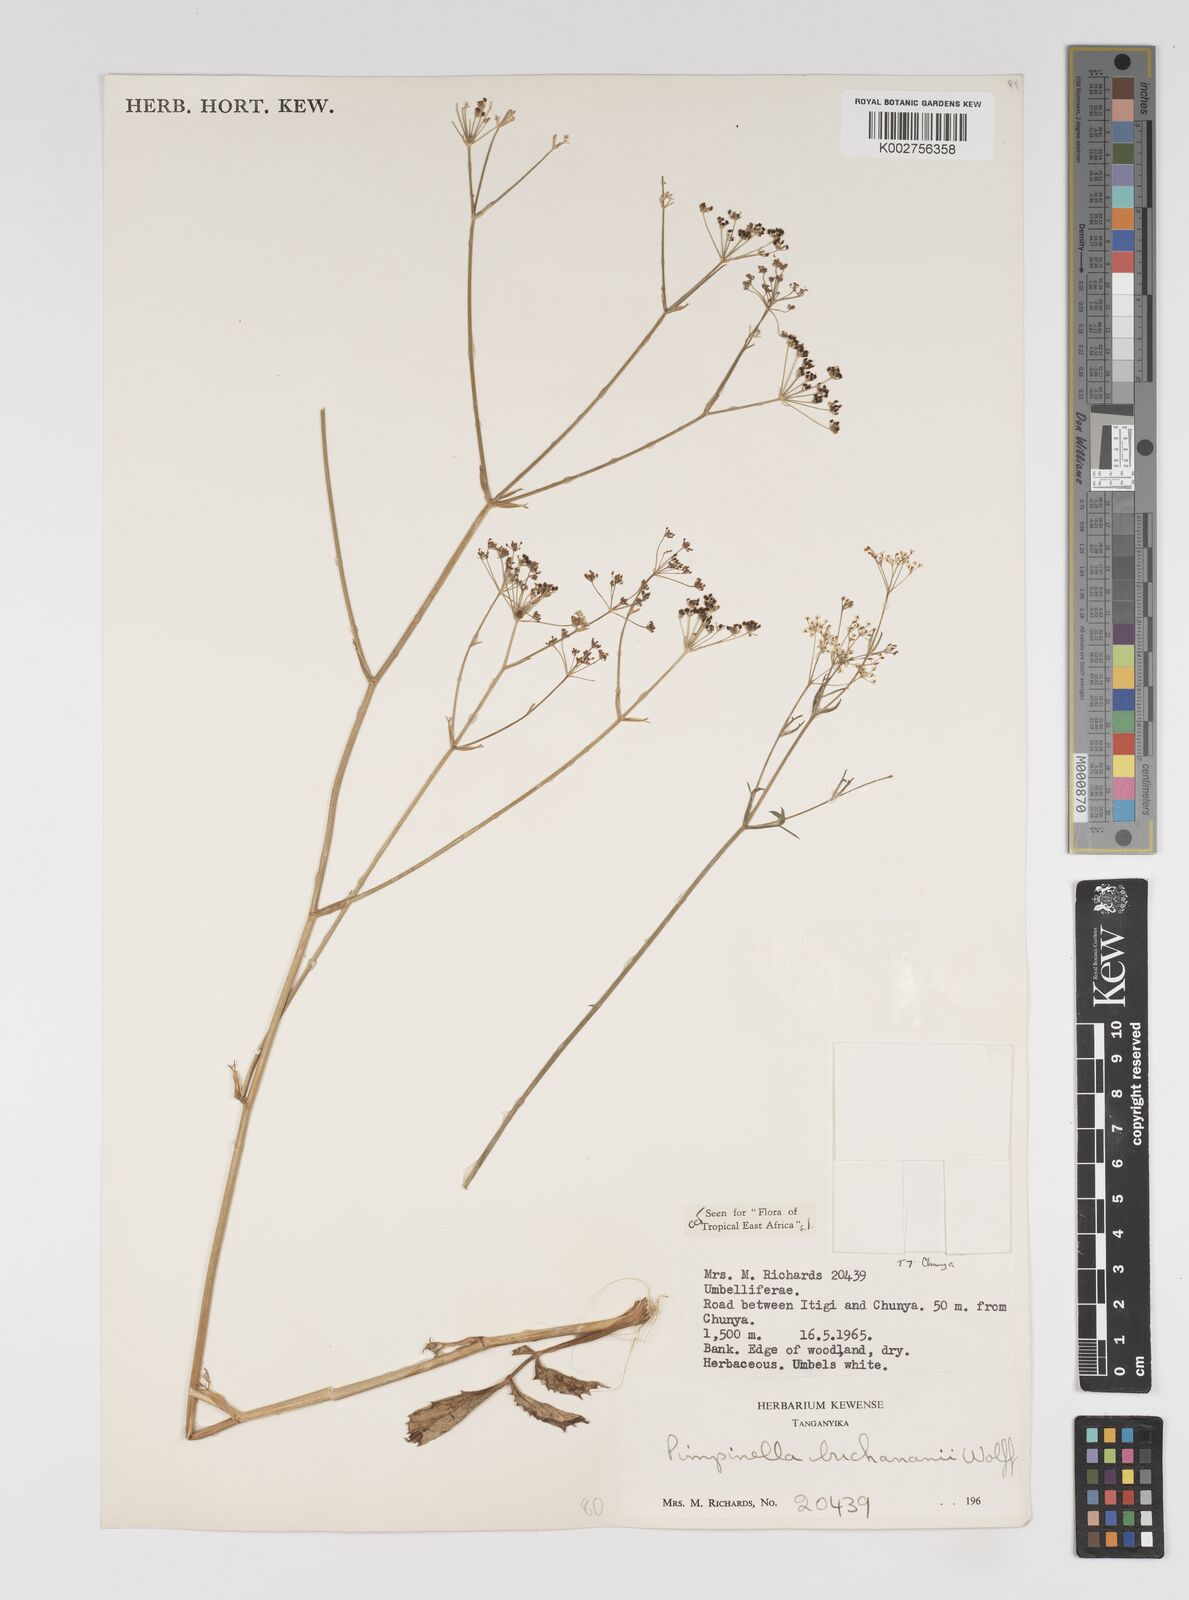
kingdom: Plantae
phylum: Tracheophyta
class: Magnoliopsida
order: Apiales
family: Apiaceae
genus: Pimpinella
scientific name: Pimpinella buchananii
